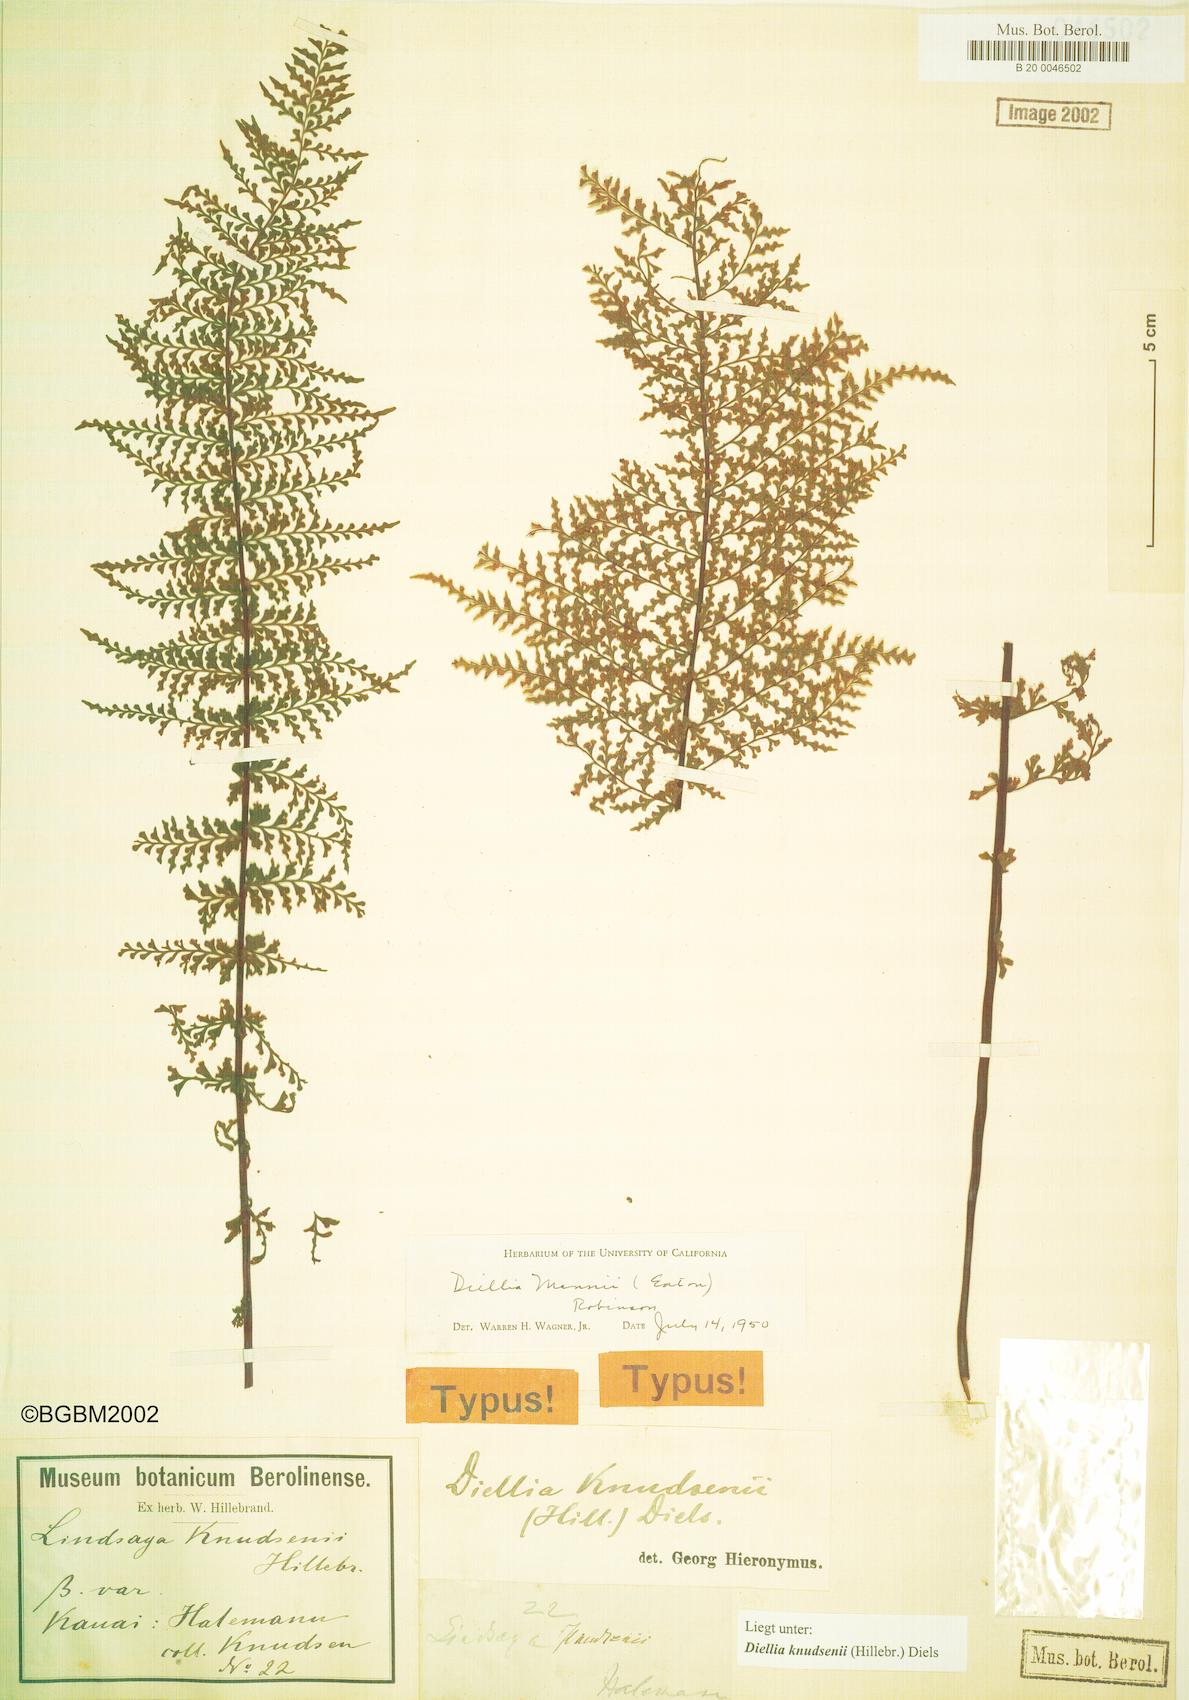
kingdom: Plantae
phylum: Tracheophyta
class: Polypodiopsida
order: Polypodiales
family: Aspleniaceae
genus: Asplenium
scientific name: Asplenium dielmannii
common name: Mann's island spleenwort
